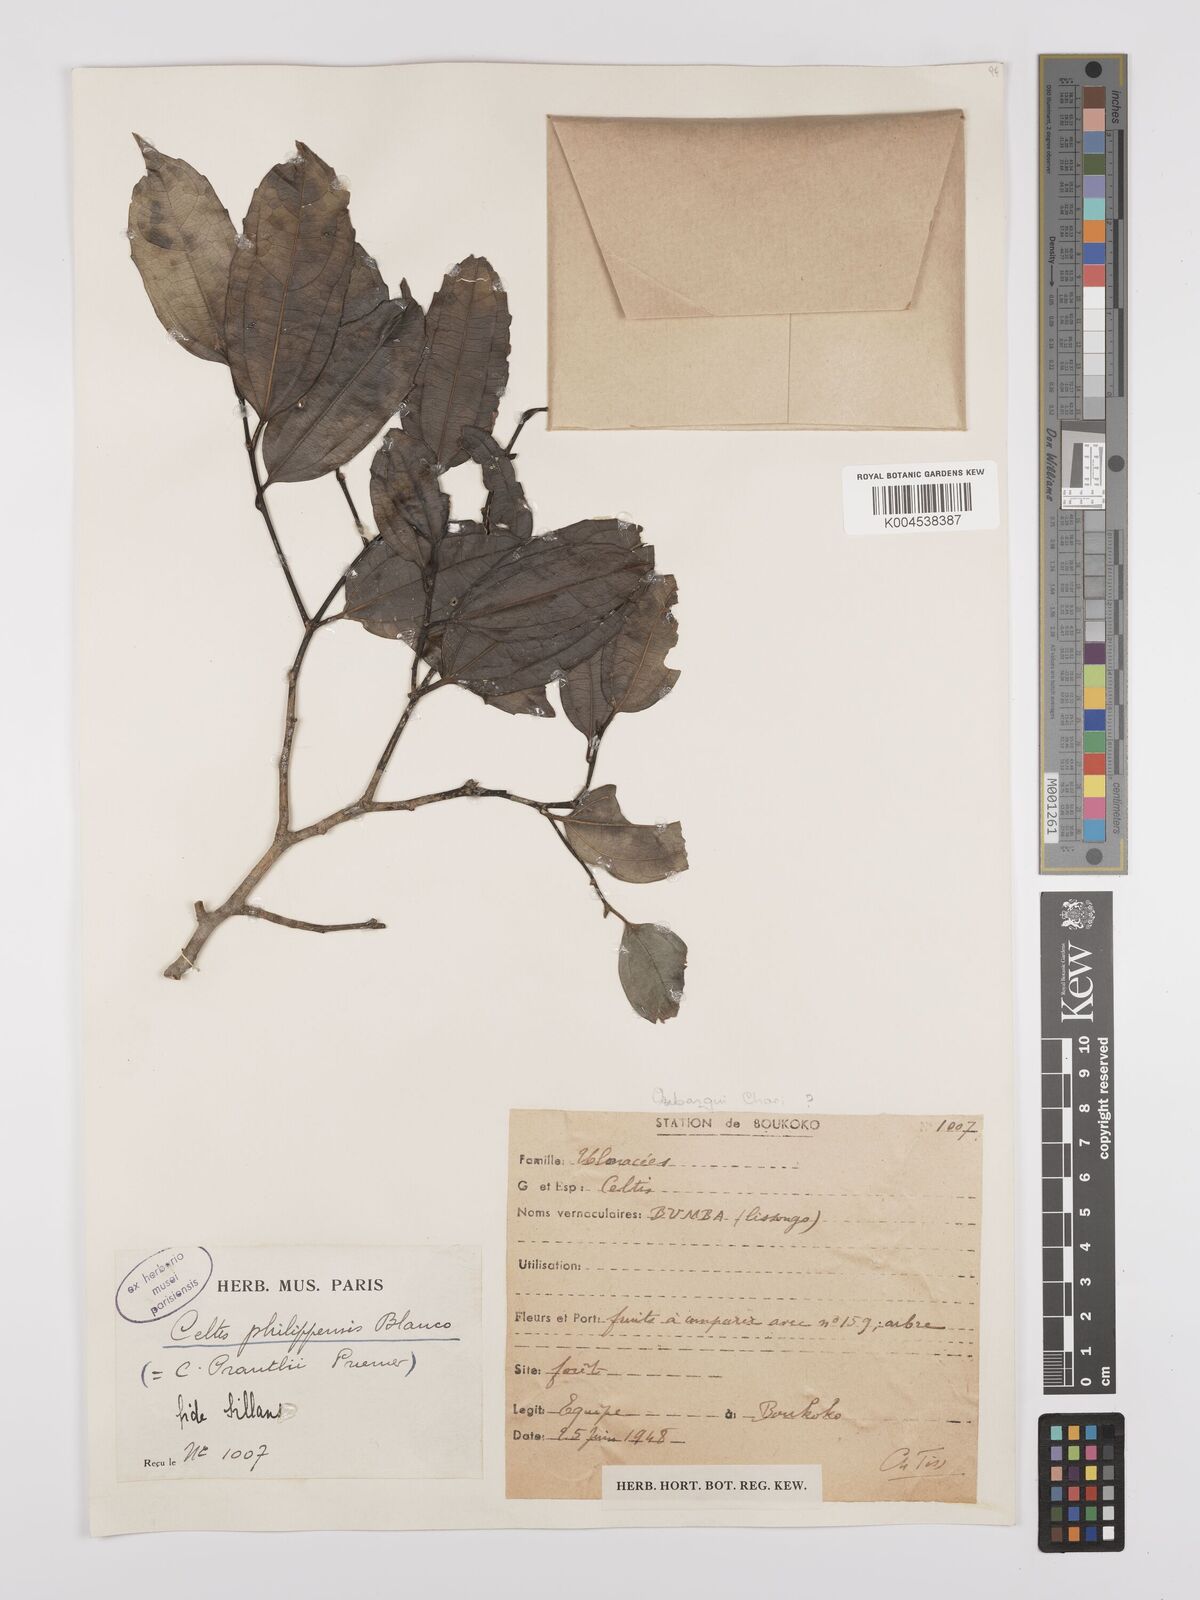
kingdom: Plantae
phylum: Tracheophyta
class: Magnoliopsida
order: Rosales
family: Cannabaceae
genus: Celtis
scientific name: Celtis philippensis
